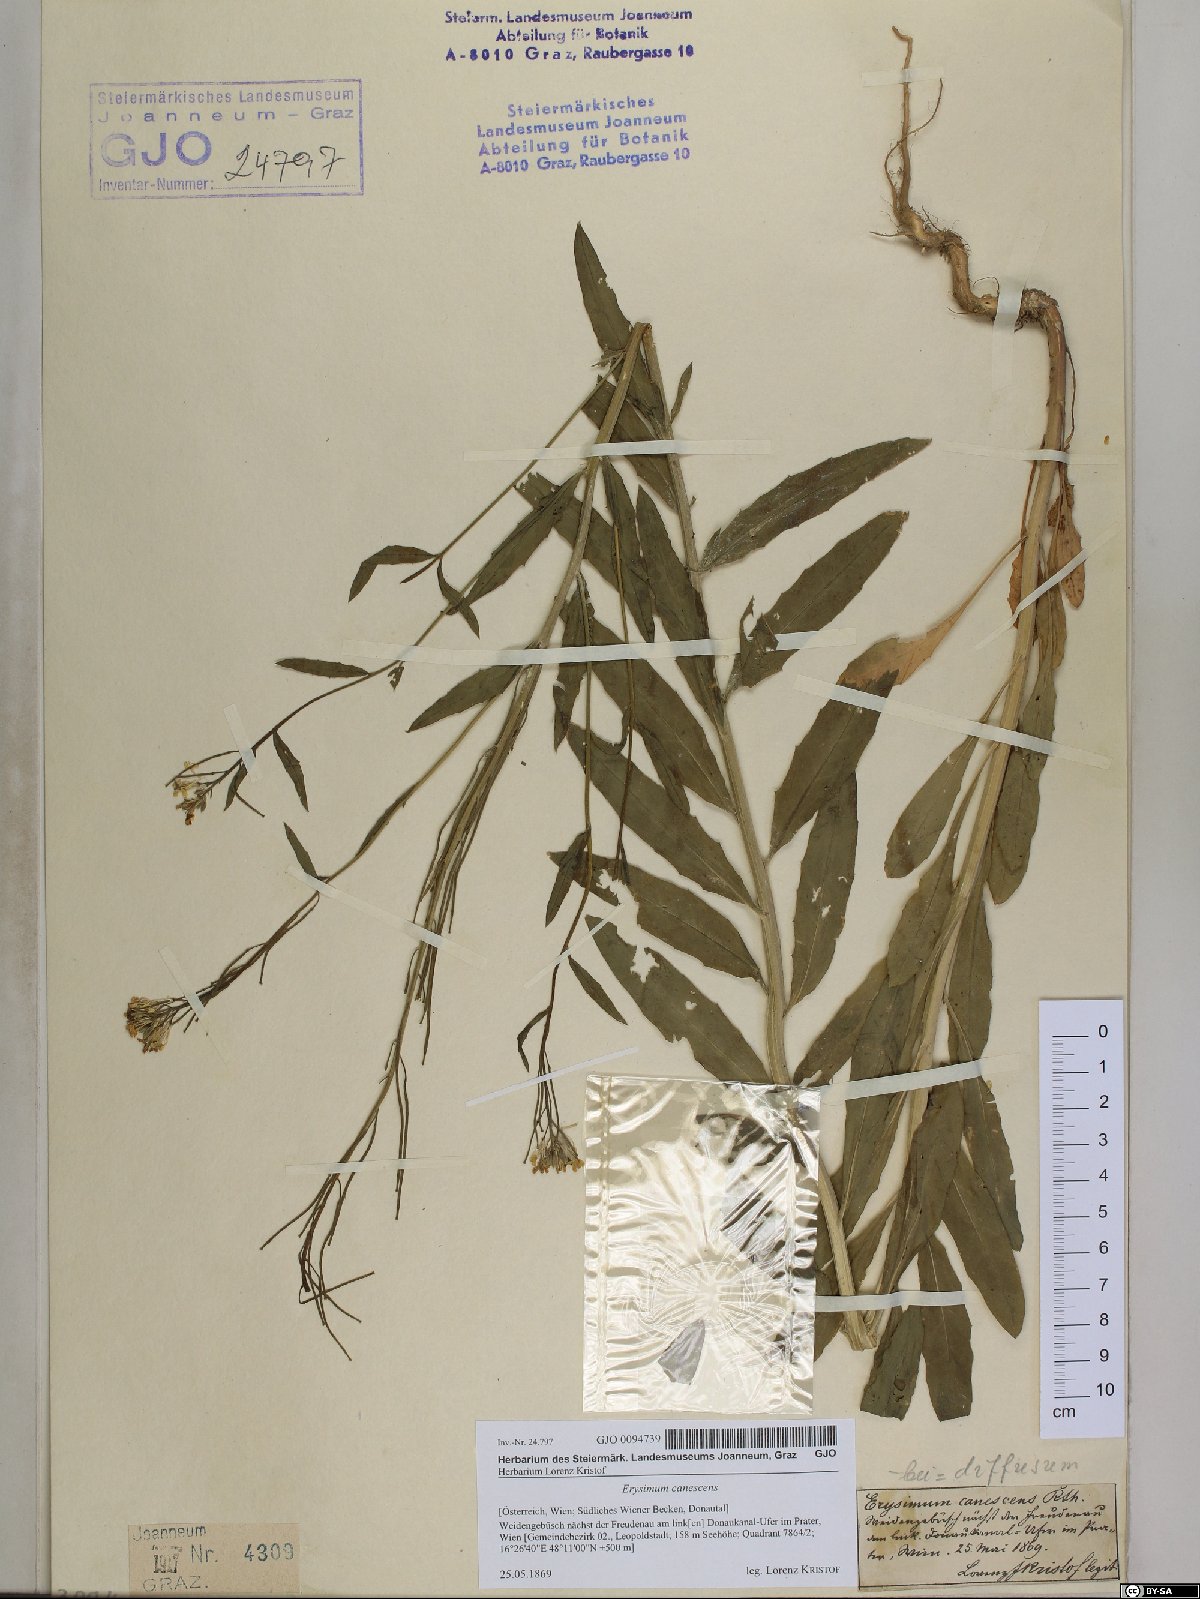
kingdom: Plantae
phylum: Tracheophyta
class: Magnoliopsida
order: Brassicales
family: Brassicaceae
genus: Erysimum
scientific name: Erysimum canescens
